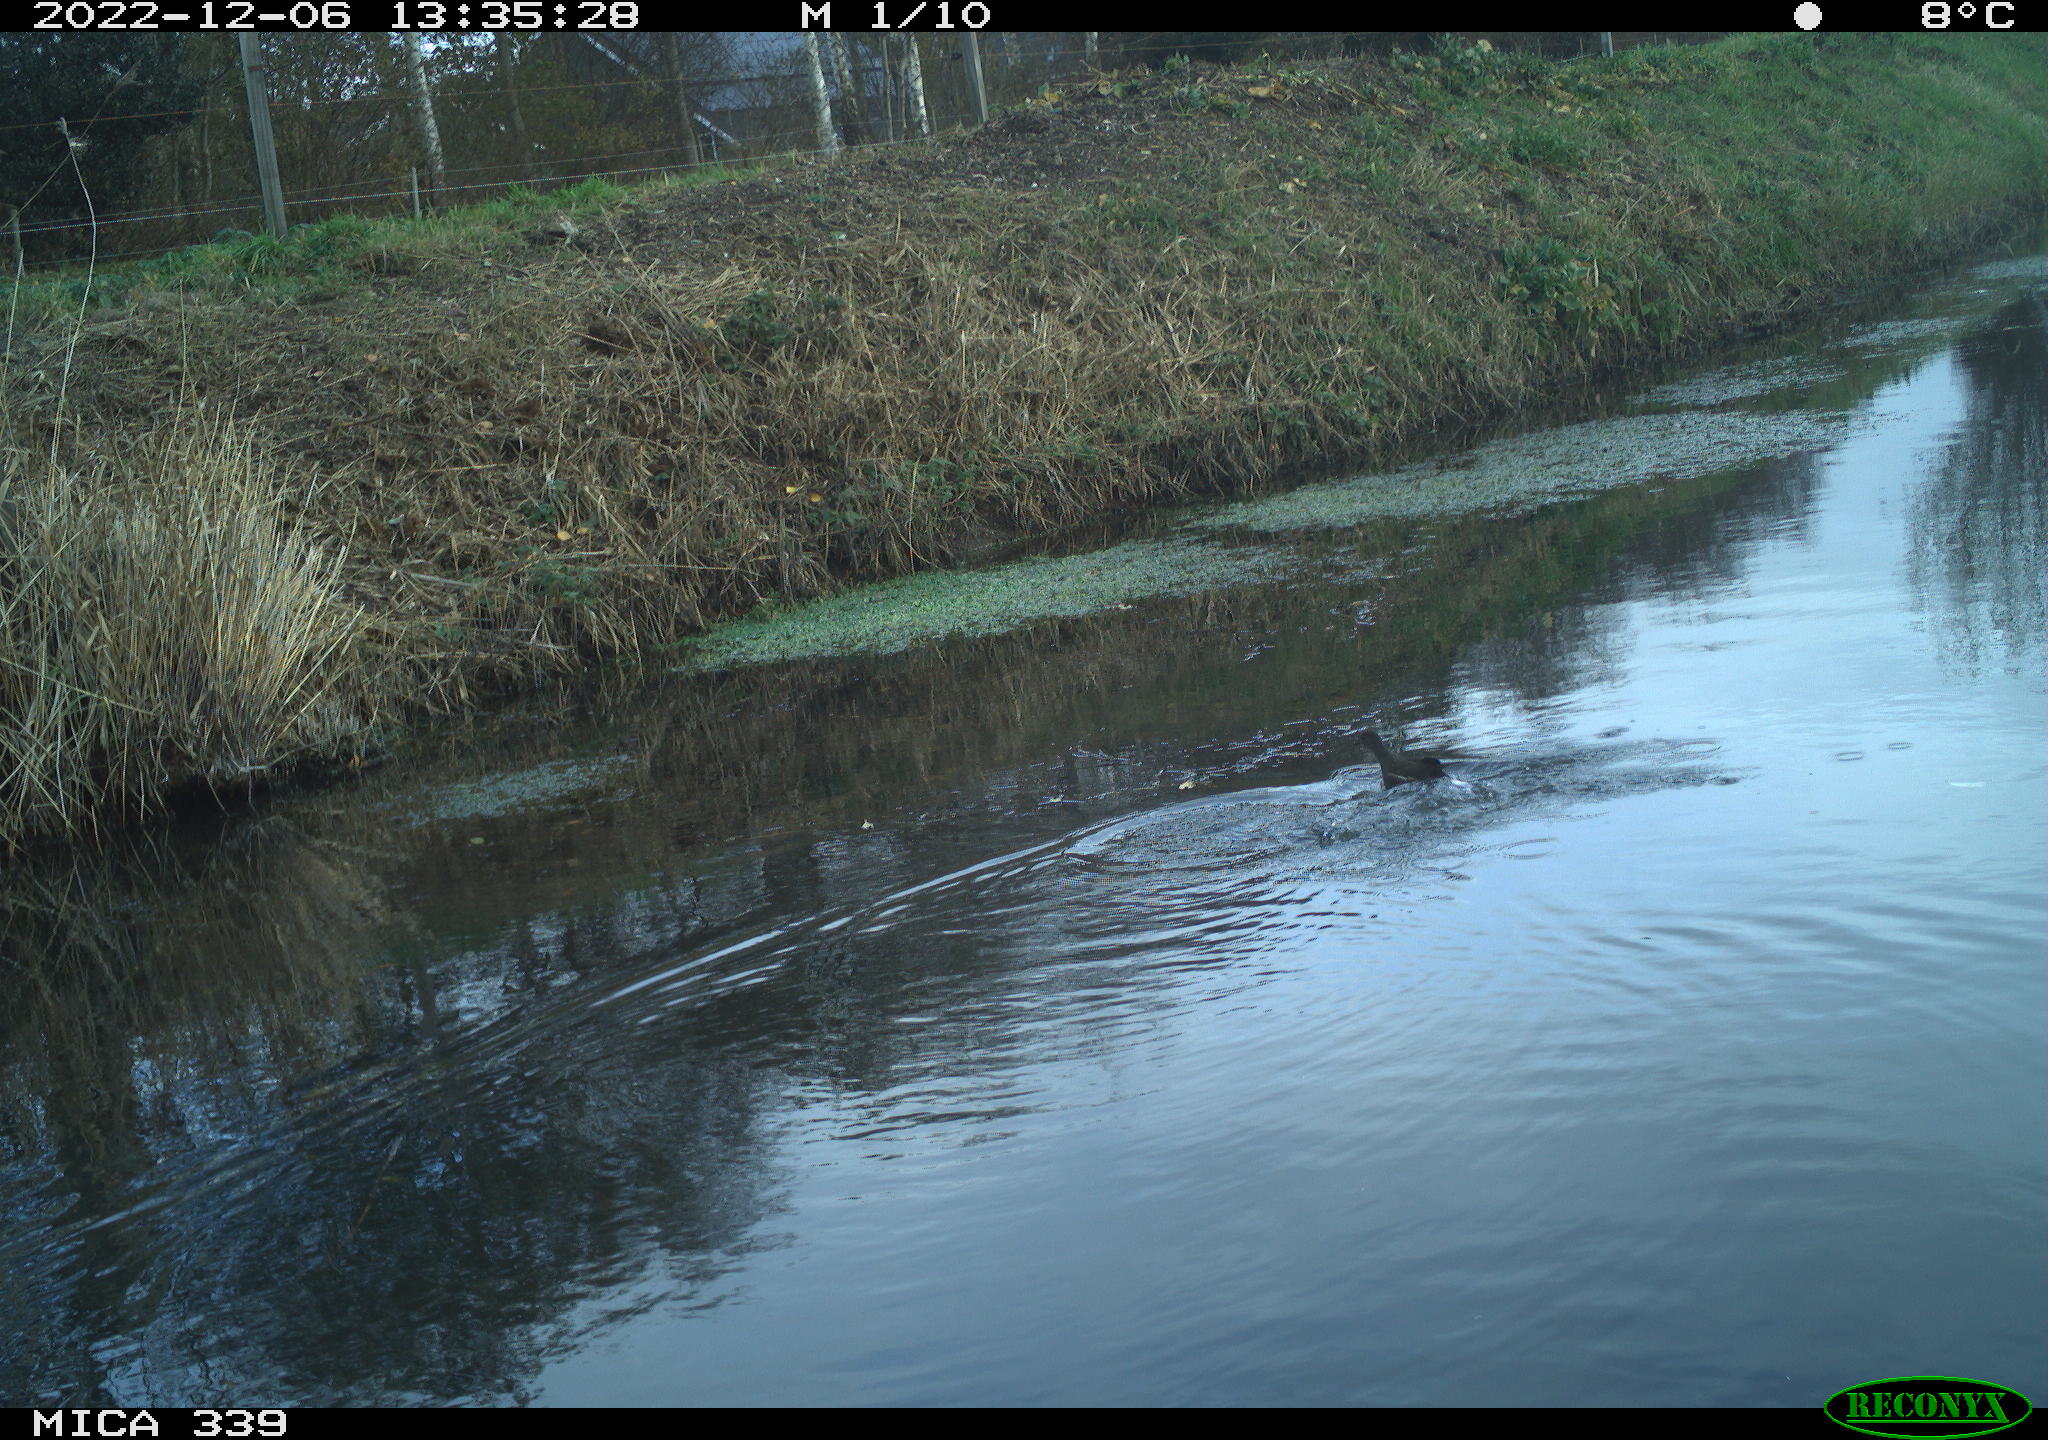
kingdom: Animalia
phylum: Chordata
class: Aves
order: Gruiformes
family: Rallidae
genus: Gallinula
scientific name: Gallinula chloropus
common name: Common moorhen
